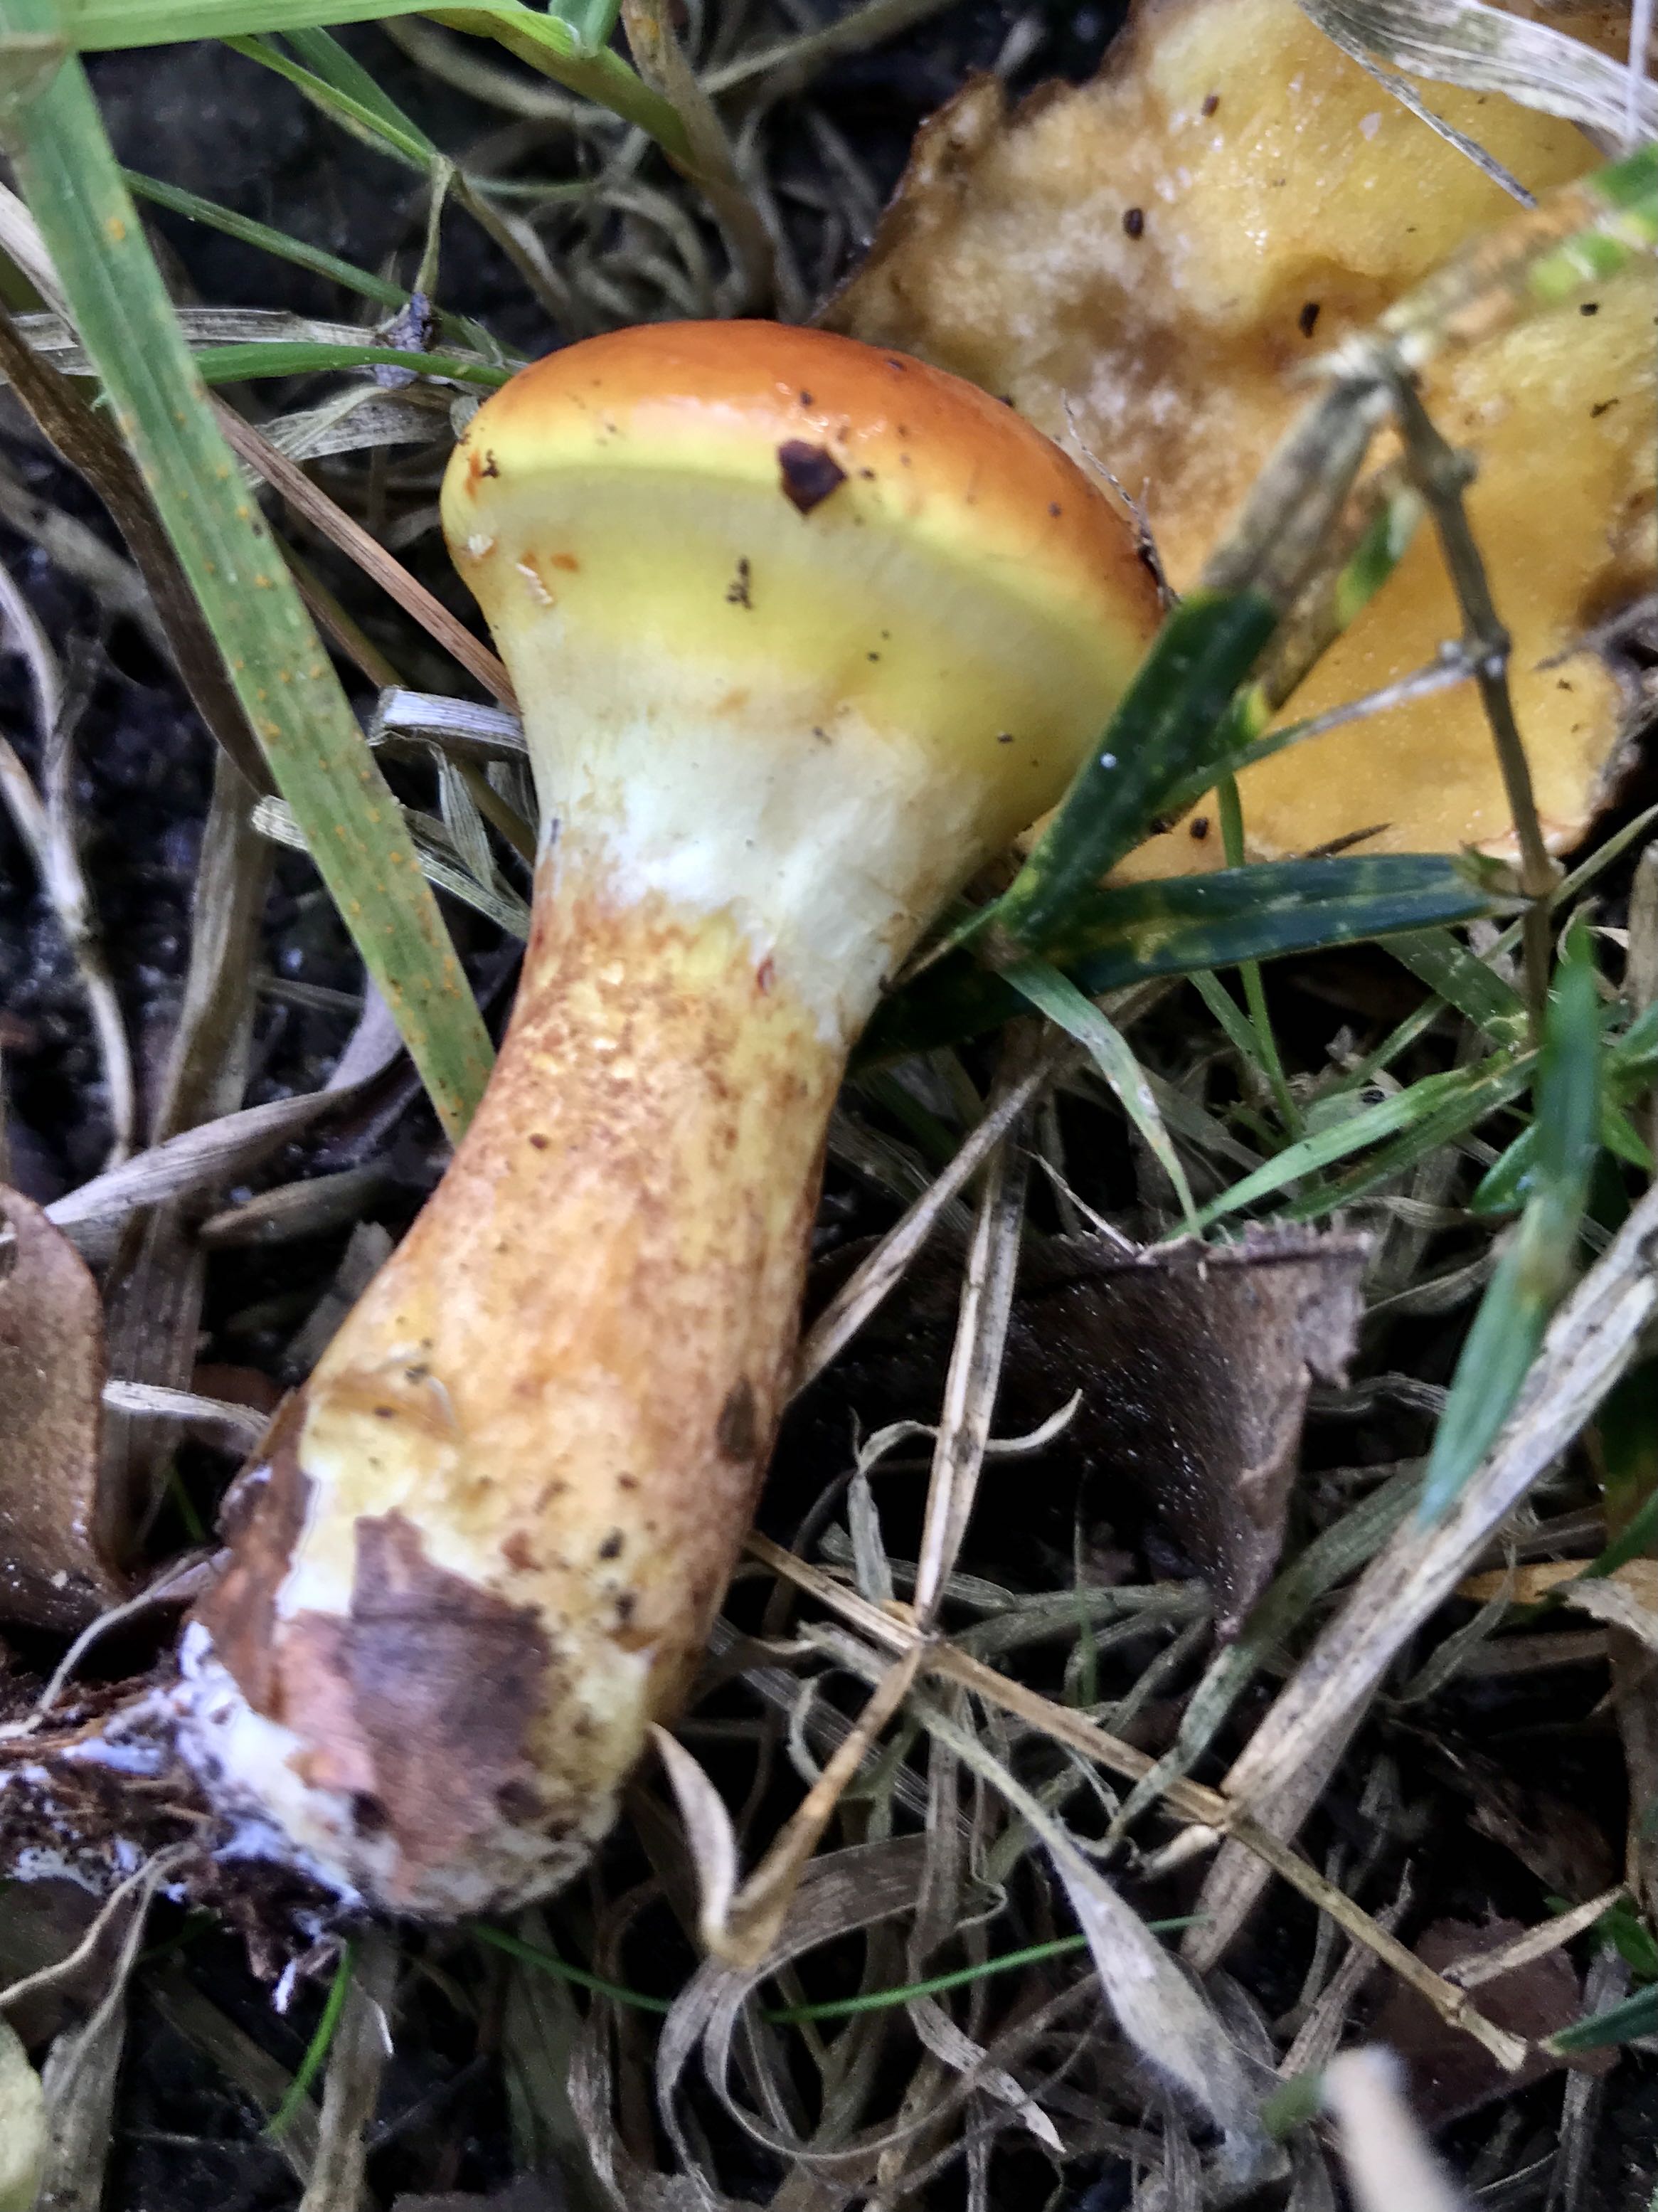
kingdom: Fungi
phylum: Basidiomycota
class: Agaricomycetes
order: Boletales
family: Suillaceae
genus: Suillus
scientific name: Suillus grevillei
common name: lærke-slimrørhat
